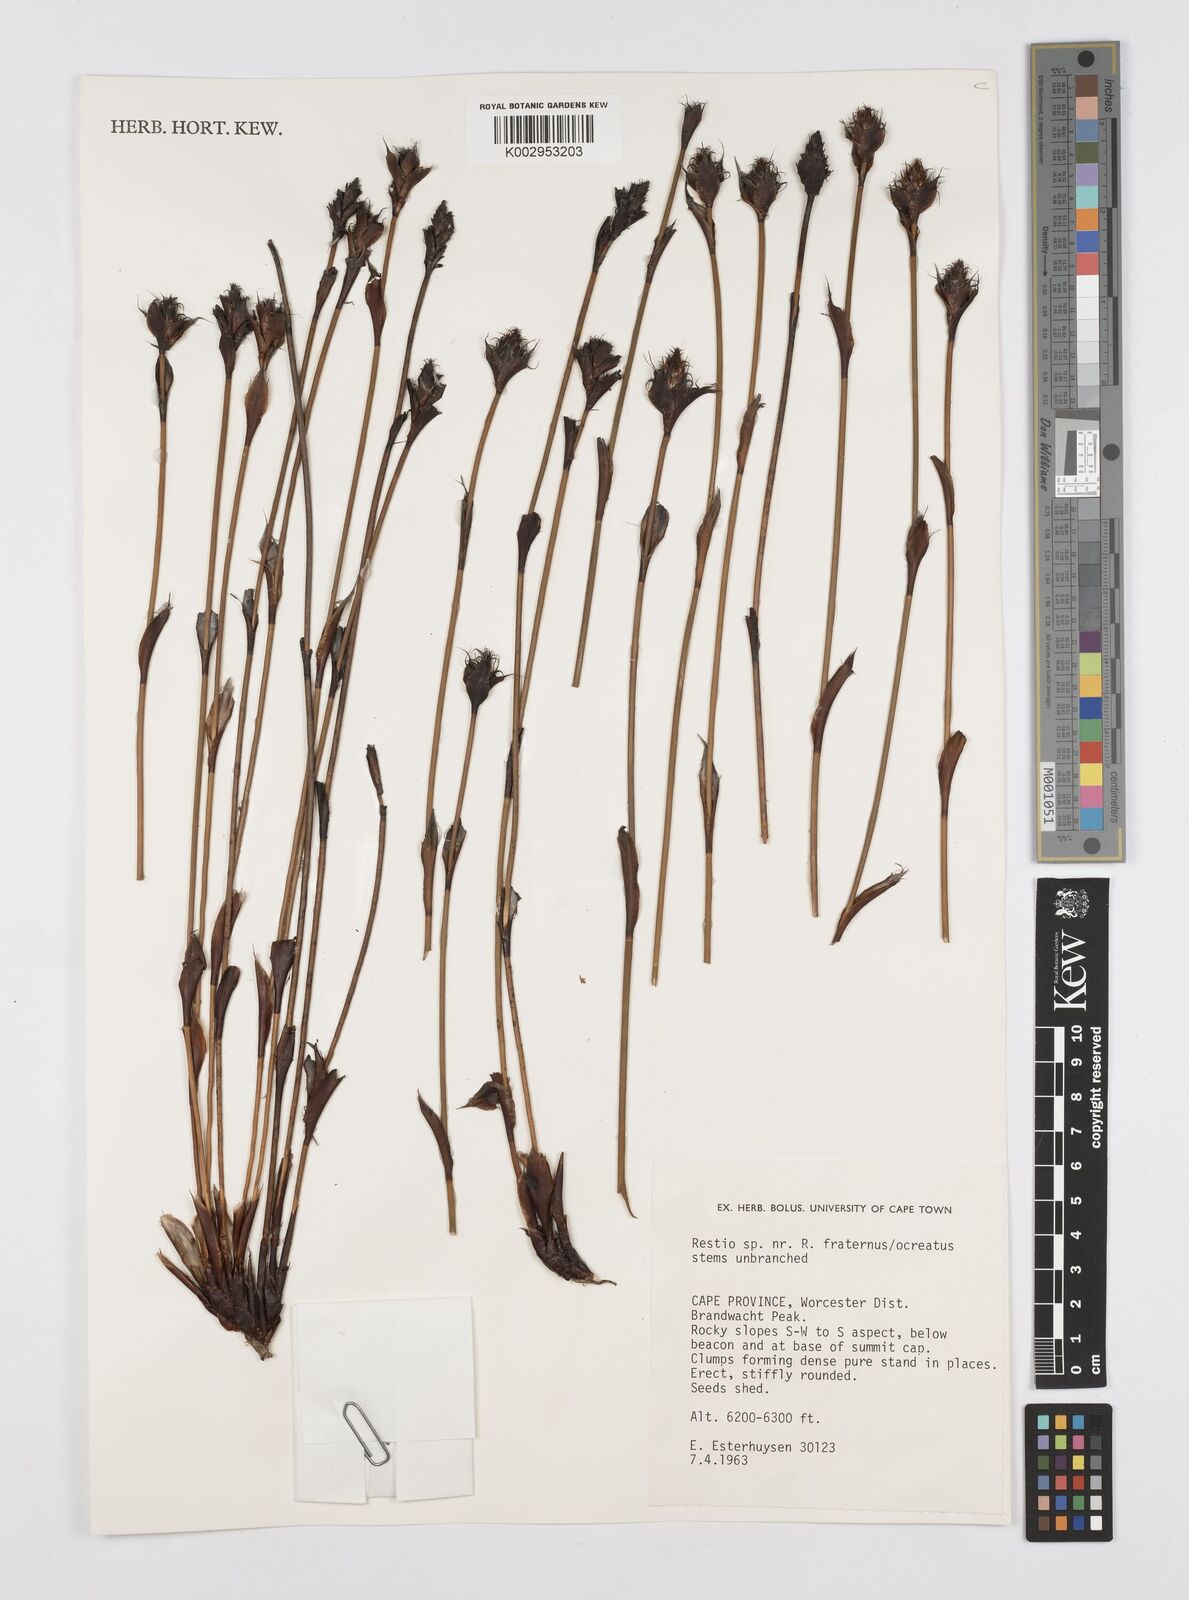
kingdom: Plantae
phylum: Tracheophyta
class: Liliopsida
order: Poales
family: Restionaceae
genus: Restio
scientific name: Restio fraternus
